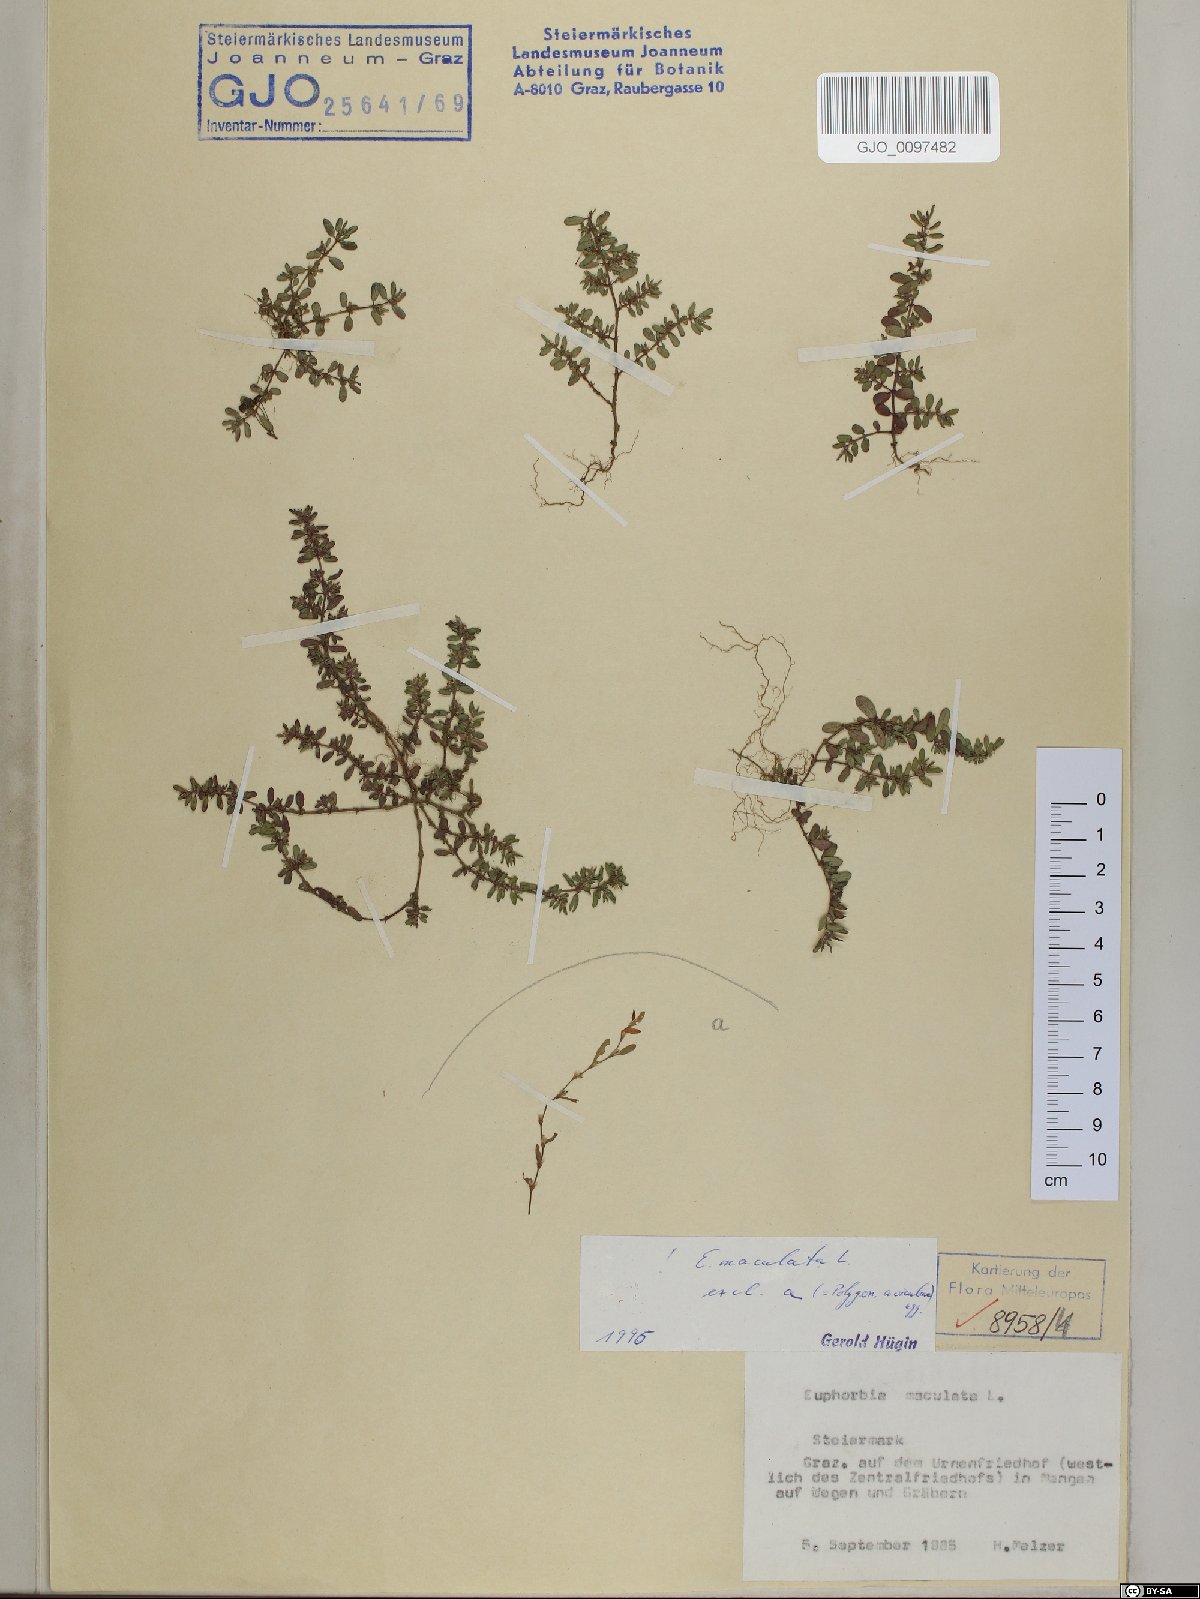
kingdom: Plantae
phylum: Tracheophyta
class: Magnoliopsida
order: Malpighiales
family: Euphorbiaceae
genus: Euphorbia
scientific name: Euphorbia maculata
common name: Spotted spurge
